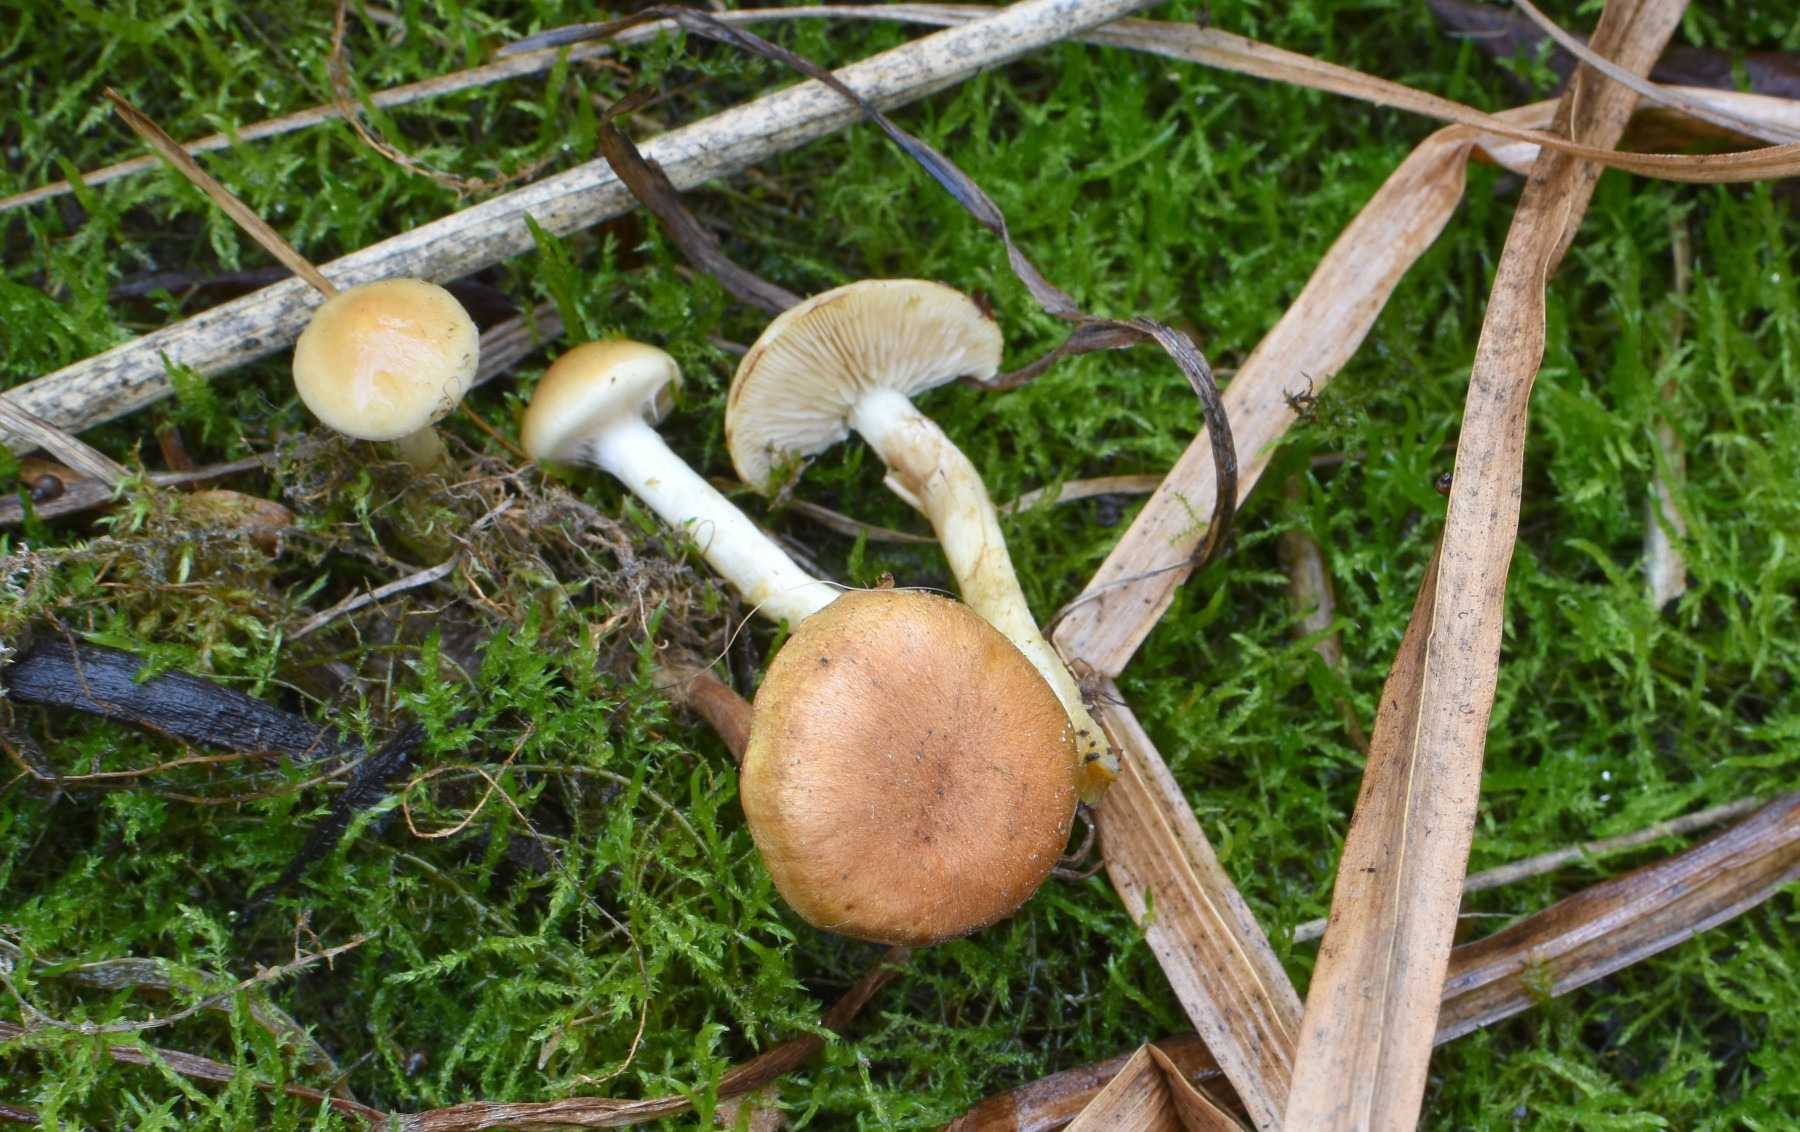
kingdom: Fungi
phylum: Basidiomycota
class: Agaricomycetes
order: Agaricales
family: Strophariaceae
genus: Pholiota
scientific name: Pholiota conissans
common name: pile-skælhat
